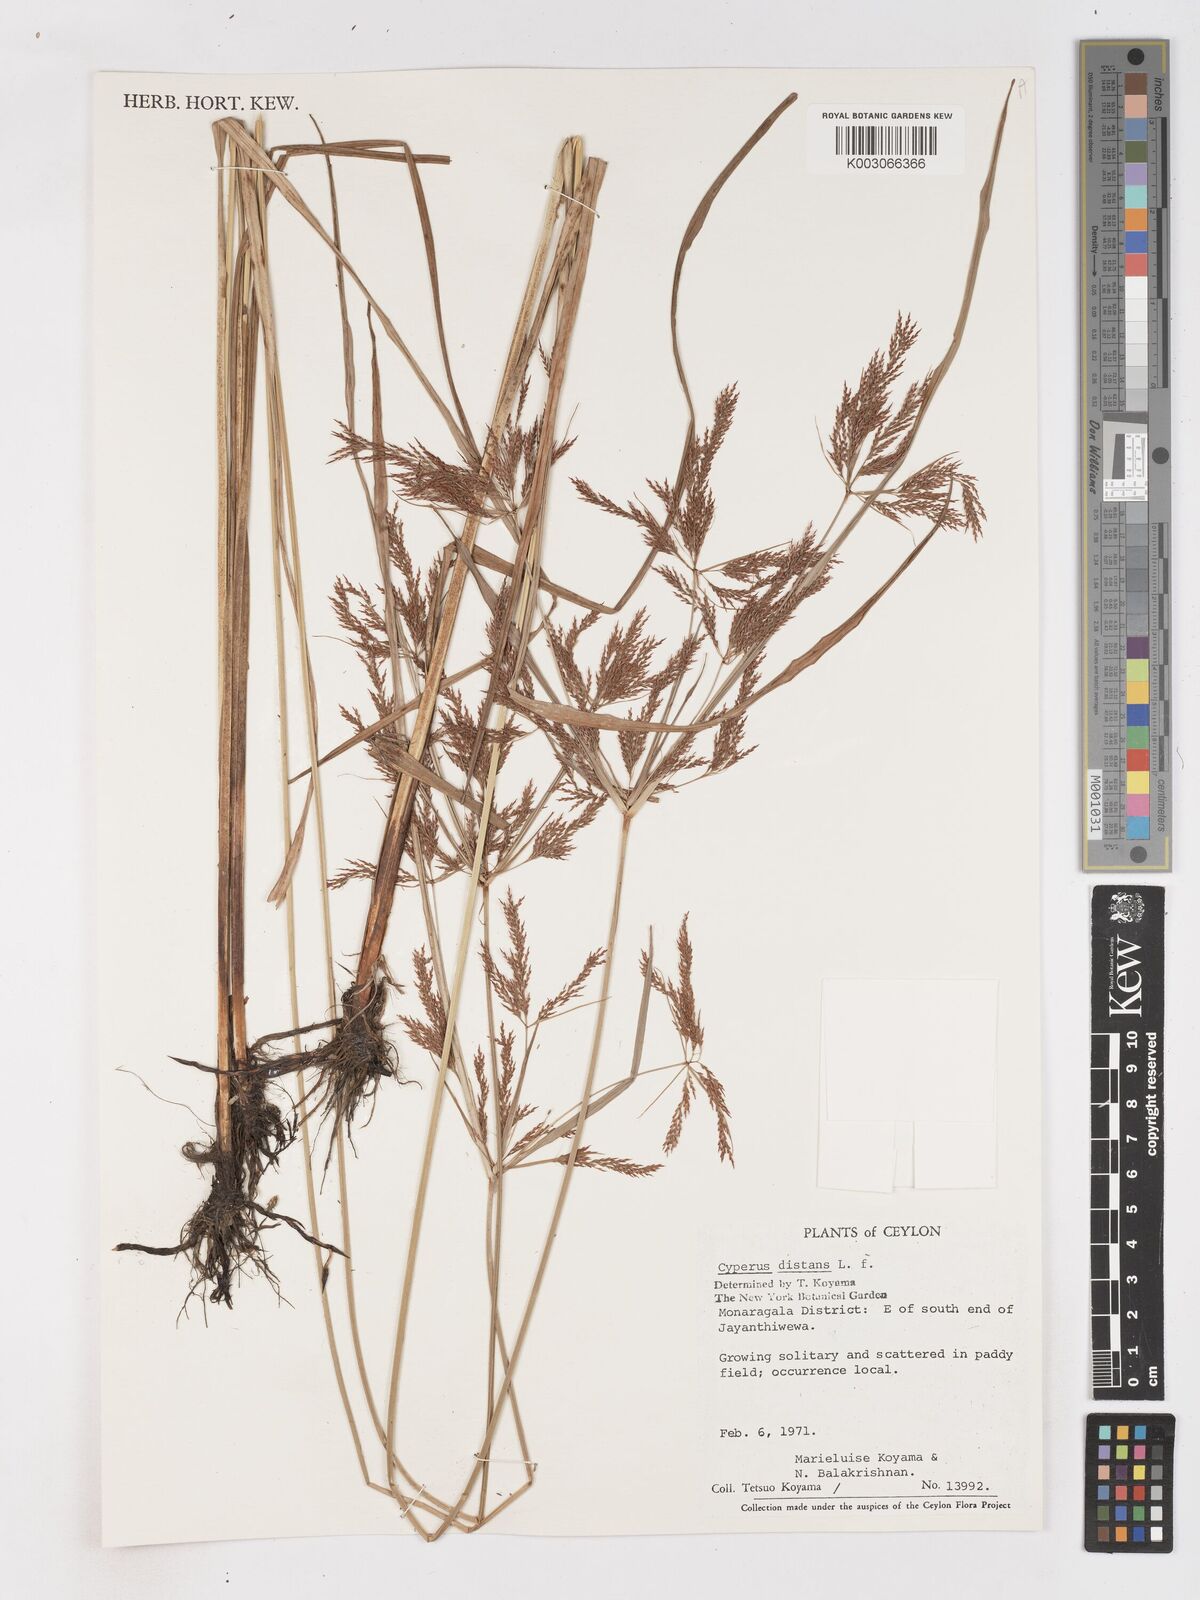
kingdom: Plantae
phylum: Tracheophyta
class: Liliopsida
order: Poales
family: Cyperaceae
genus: Cyperus
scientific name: Cyperus distans
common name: Slender cyperus
